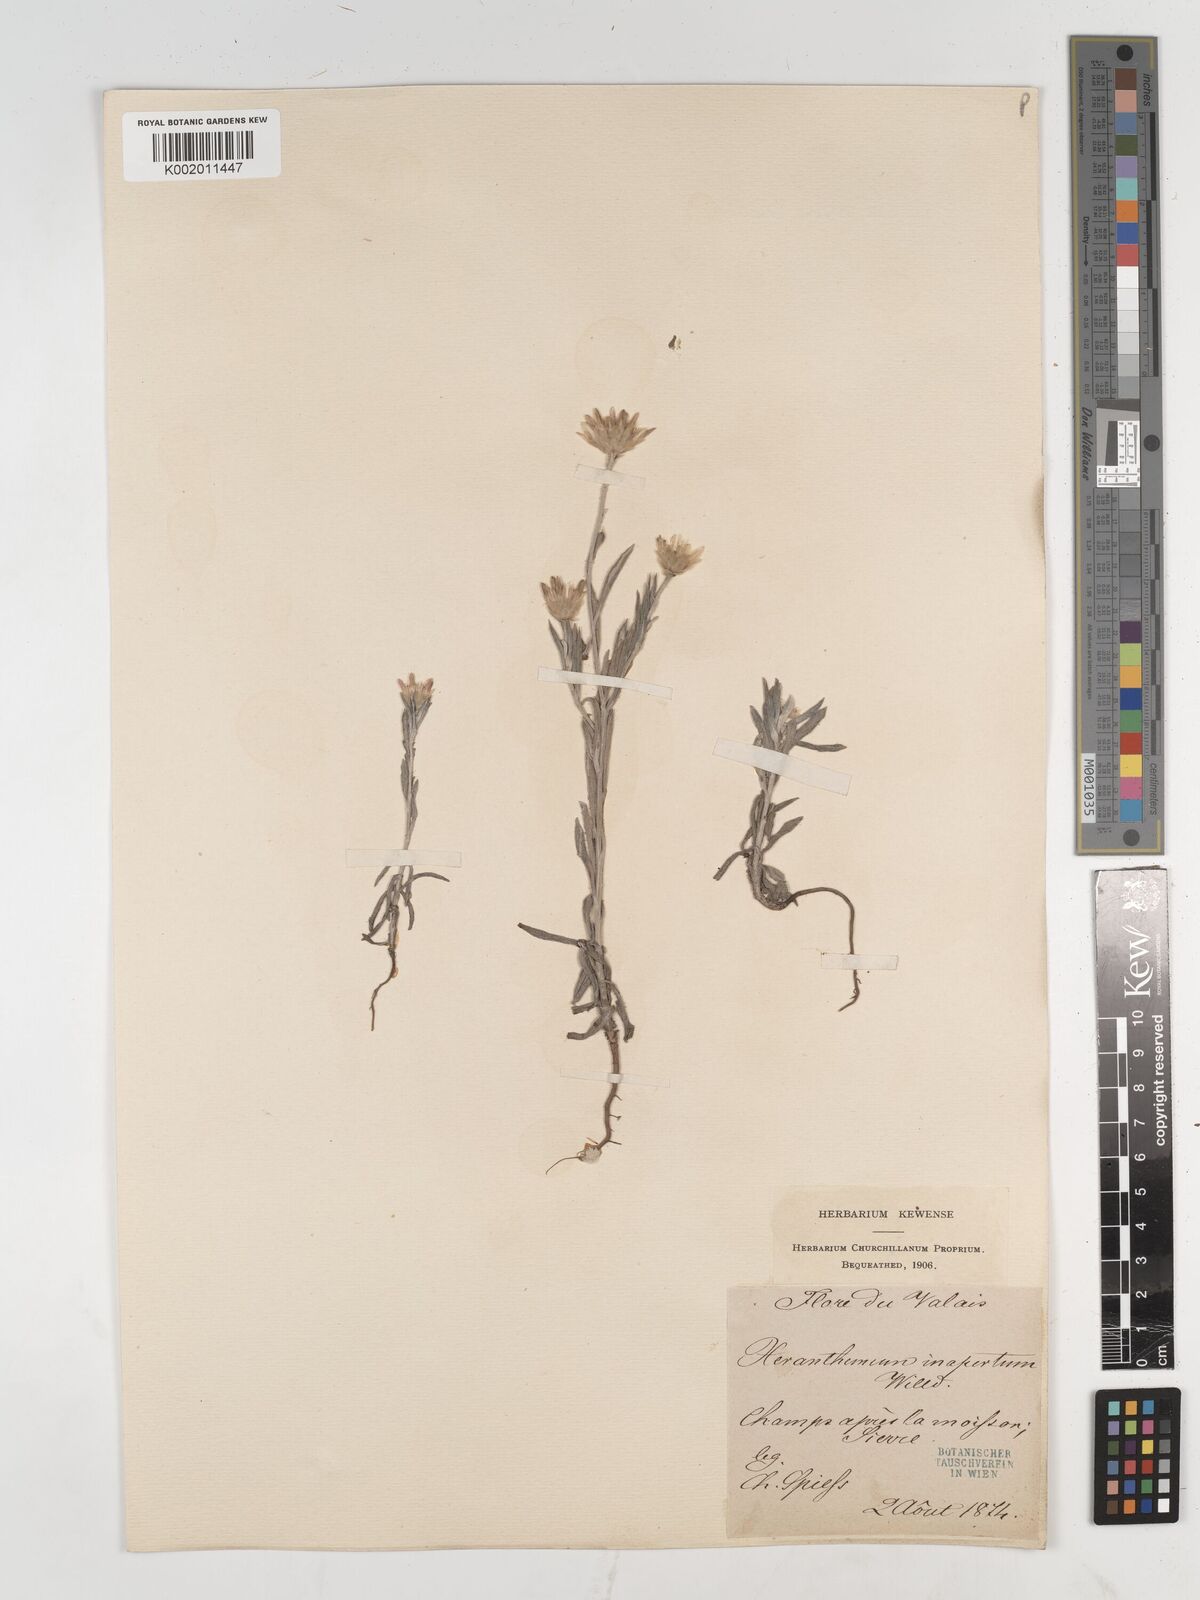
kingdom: Plantae
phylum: Tracheophyta
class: Magnoliopsida
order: Asterales
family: Asteraceae
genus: Xeranthemum
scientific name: Xeranthemum
